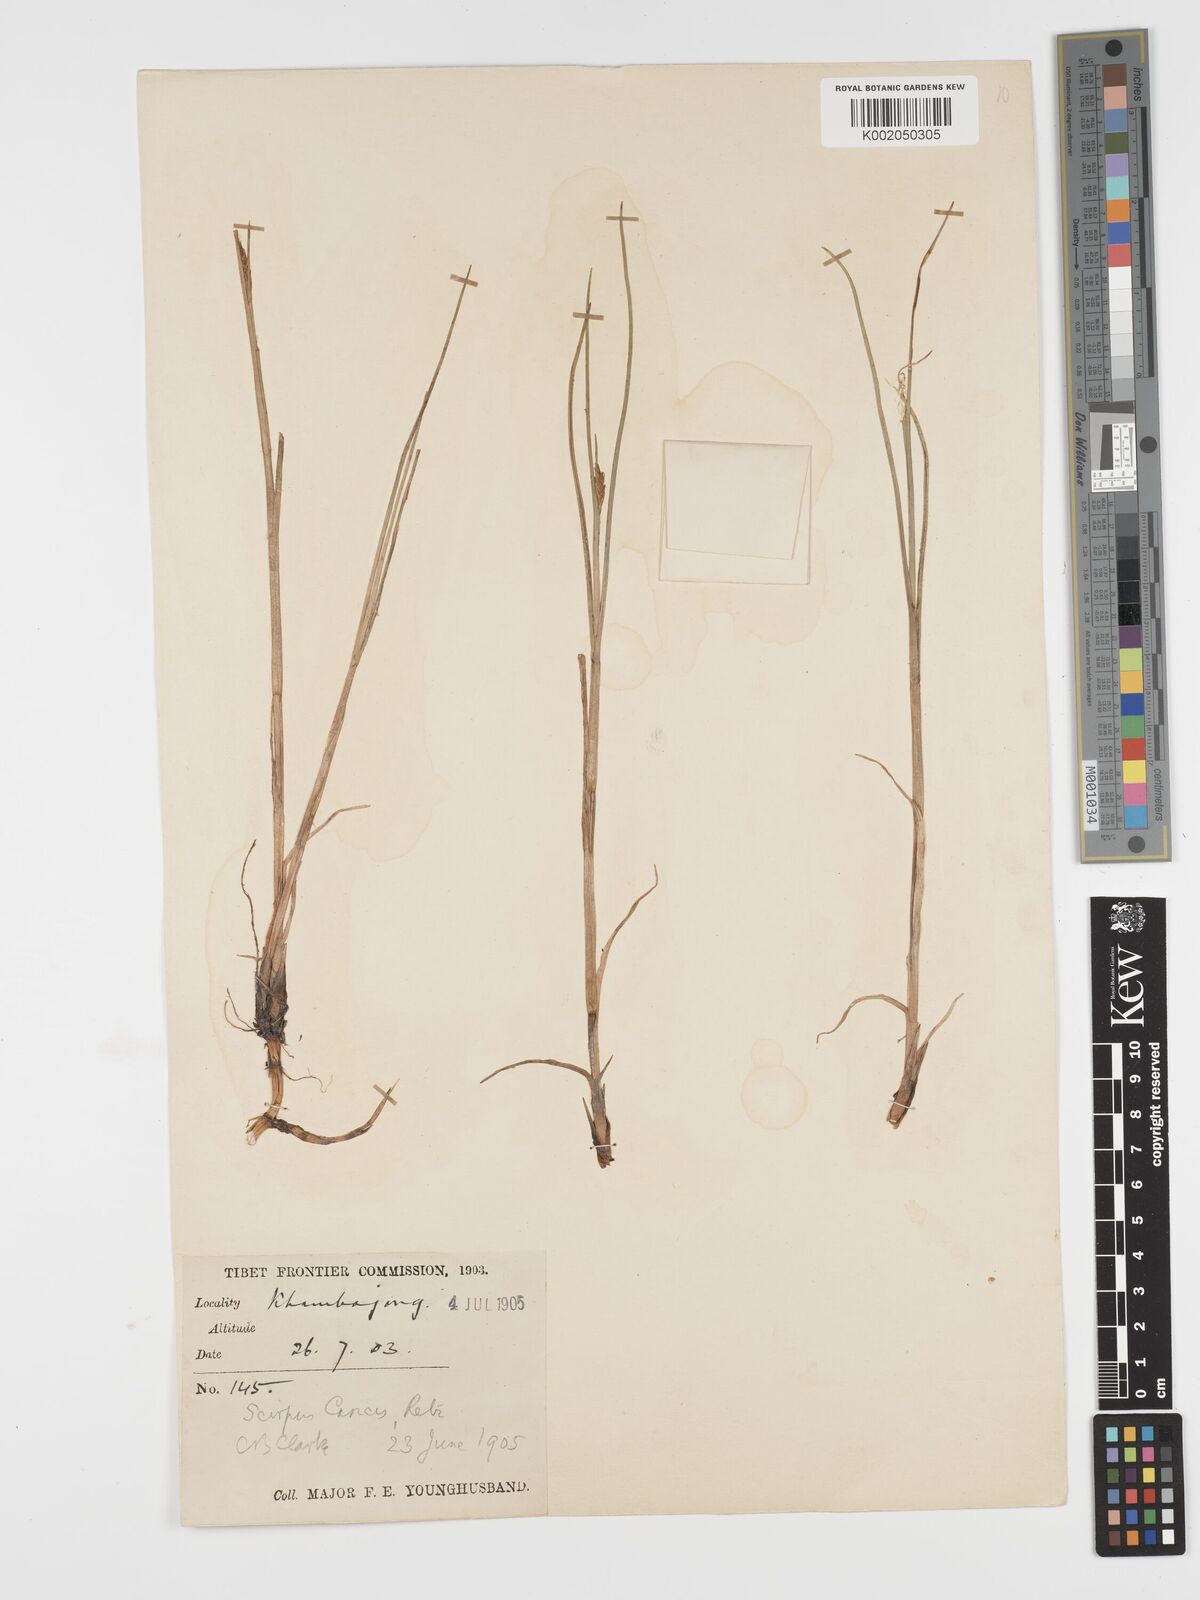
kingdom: Plantae
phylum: Tracheophyta
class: Liliopsida
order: Poales
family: Cyperaceae
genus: Blysmus
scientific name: Blysmus compressus
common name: Flat-sedge
